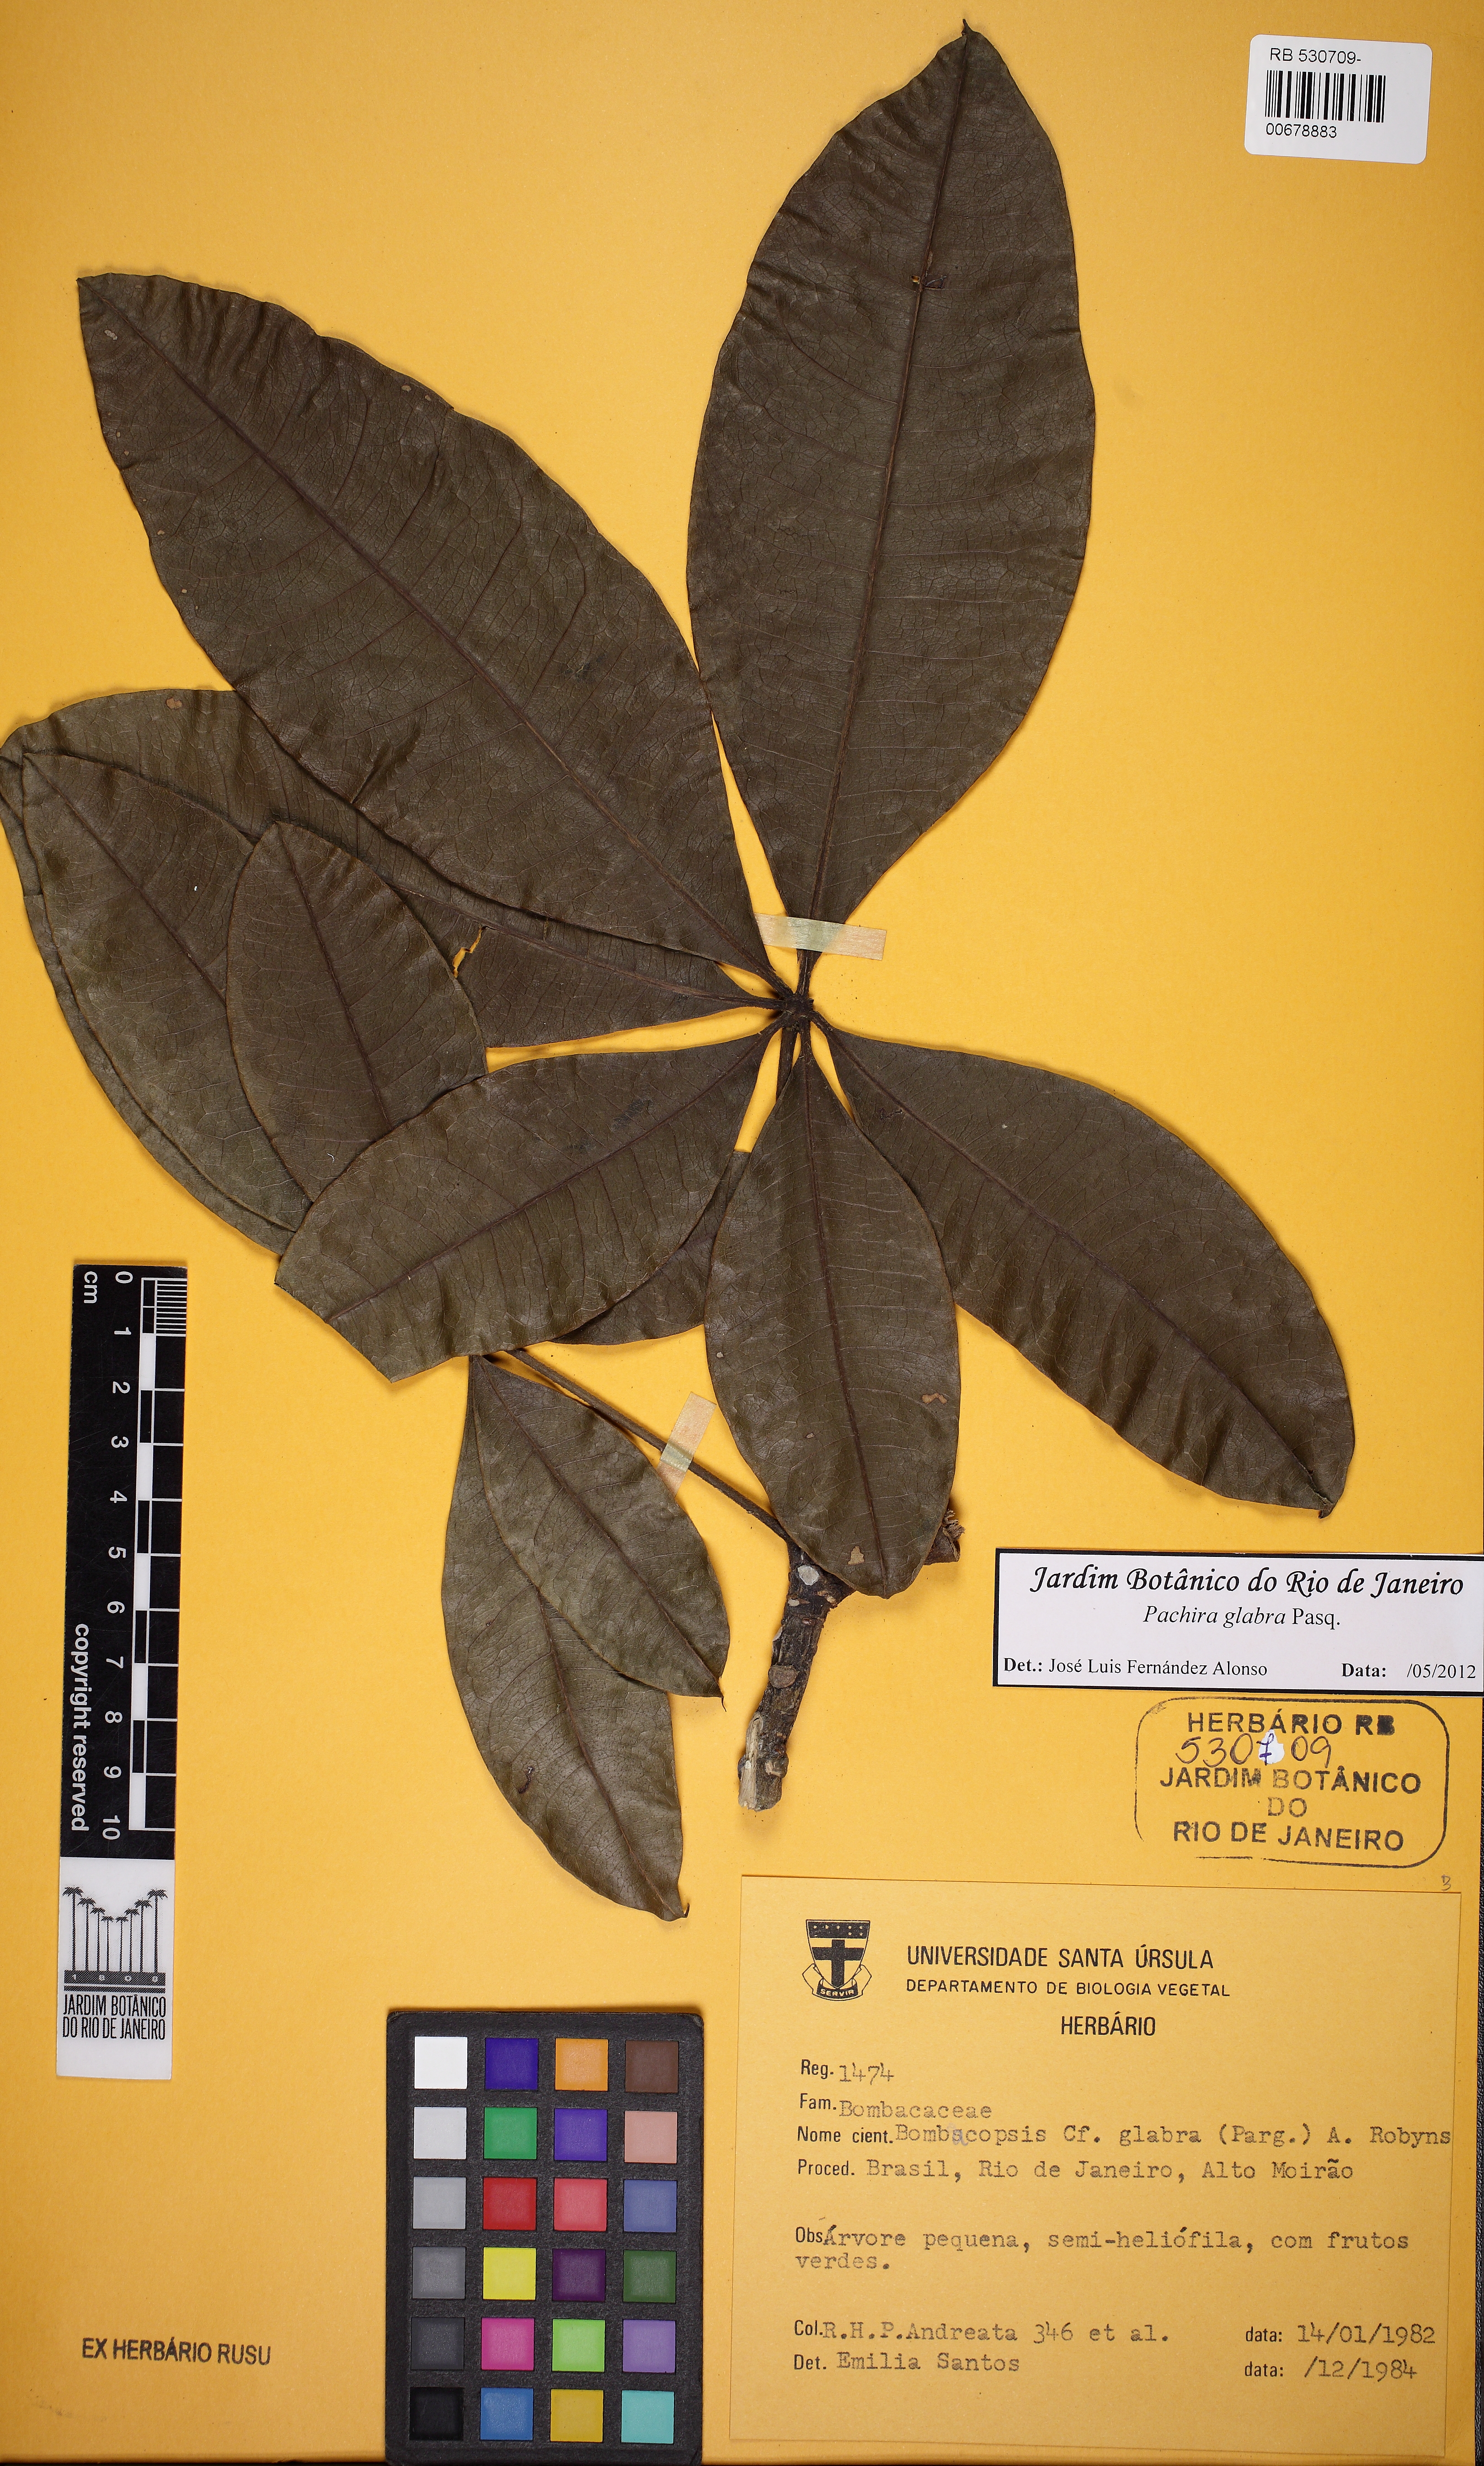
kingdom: Plantae
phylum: Tracheophyta
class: Magnoliopsida
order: Malvales
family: Malvaceae
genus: Pachira
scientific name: Pachira glabra
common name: Moneytree
